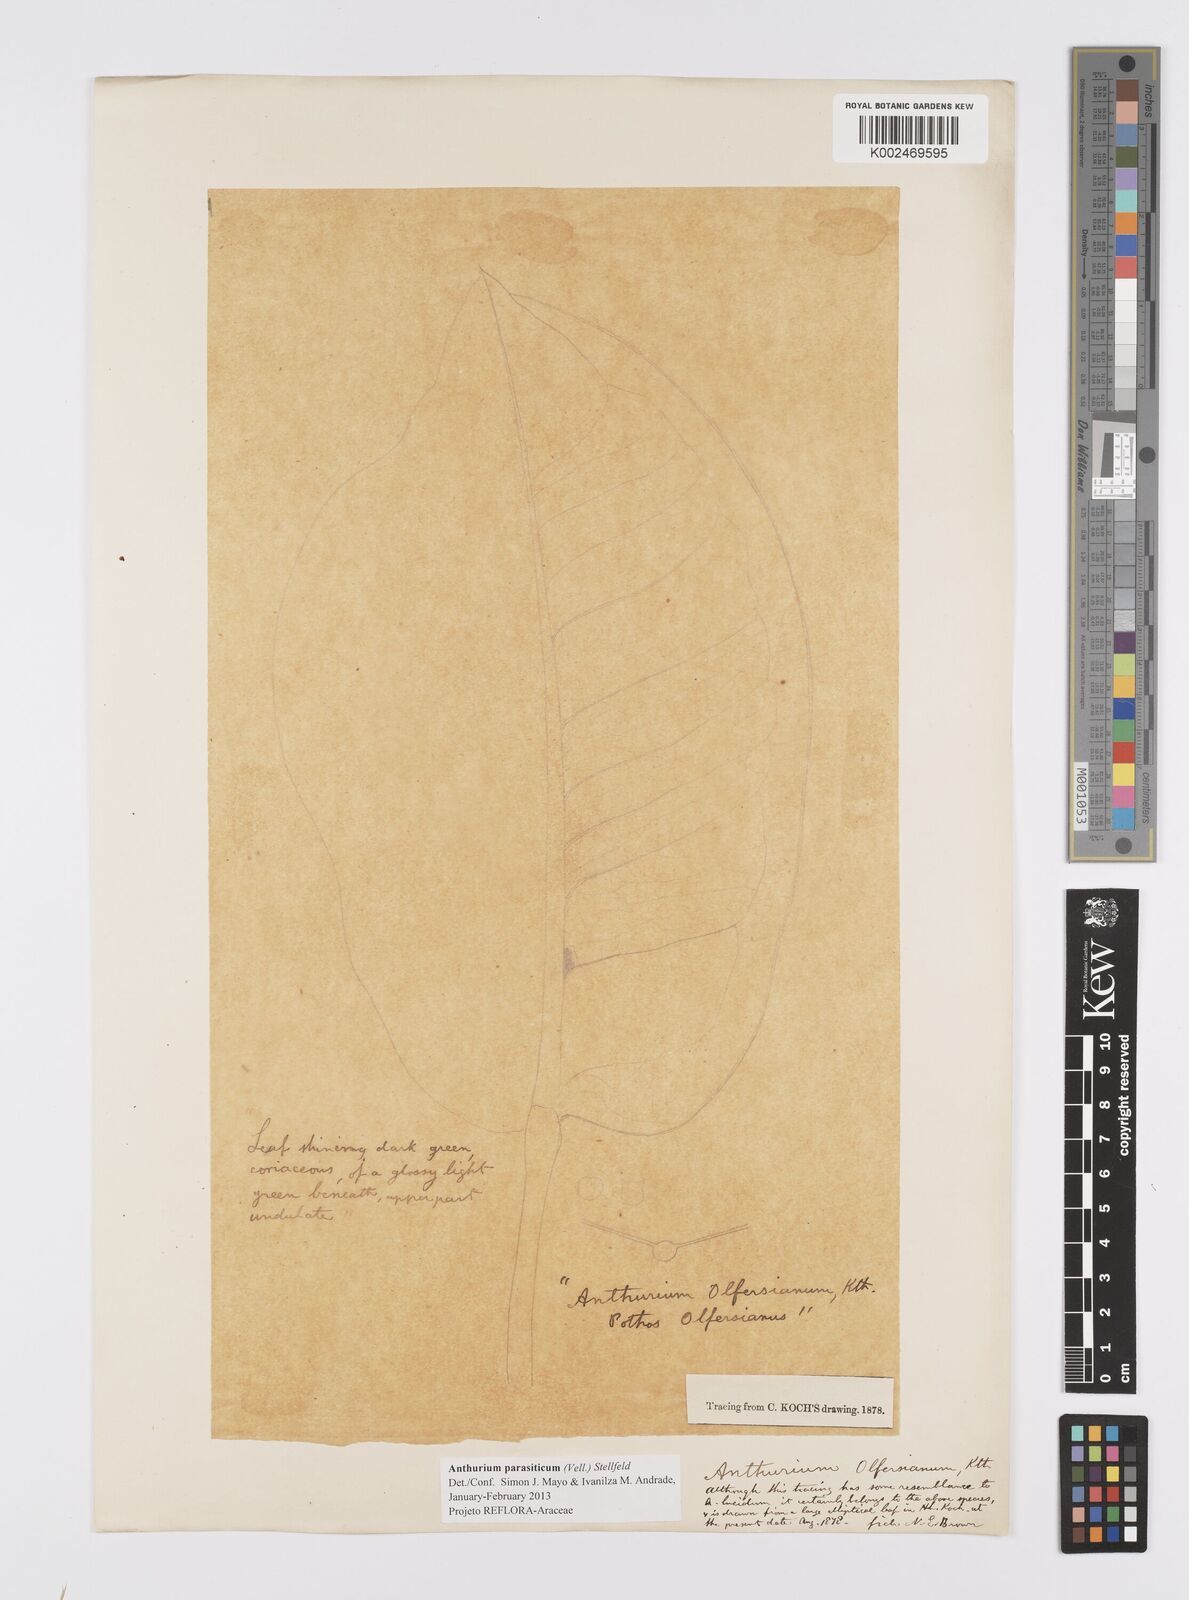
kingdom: Plantae
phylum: Tracheophyta
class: Liliopsida
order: Alismatales
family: Araceae
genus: Anthurium
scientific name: Anthurium parasiticum
